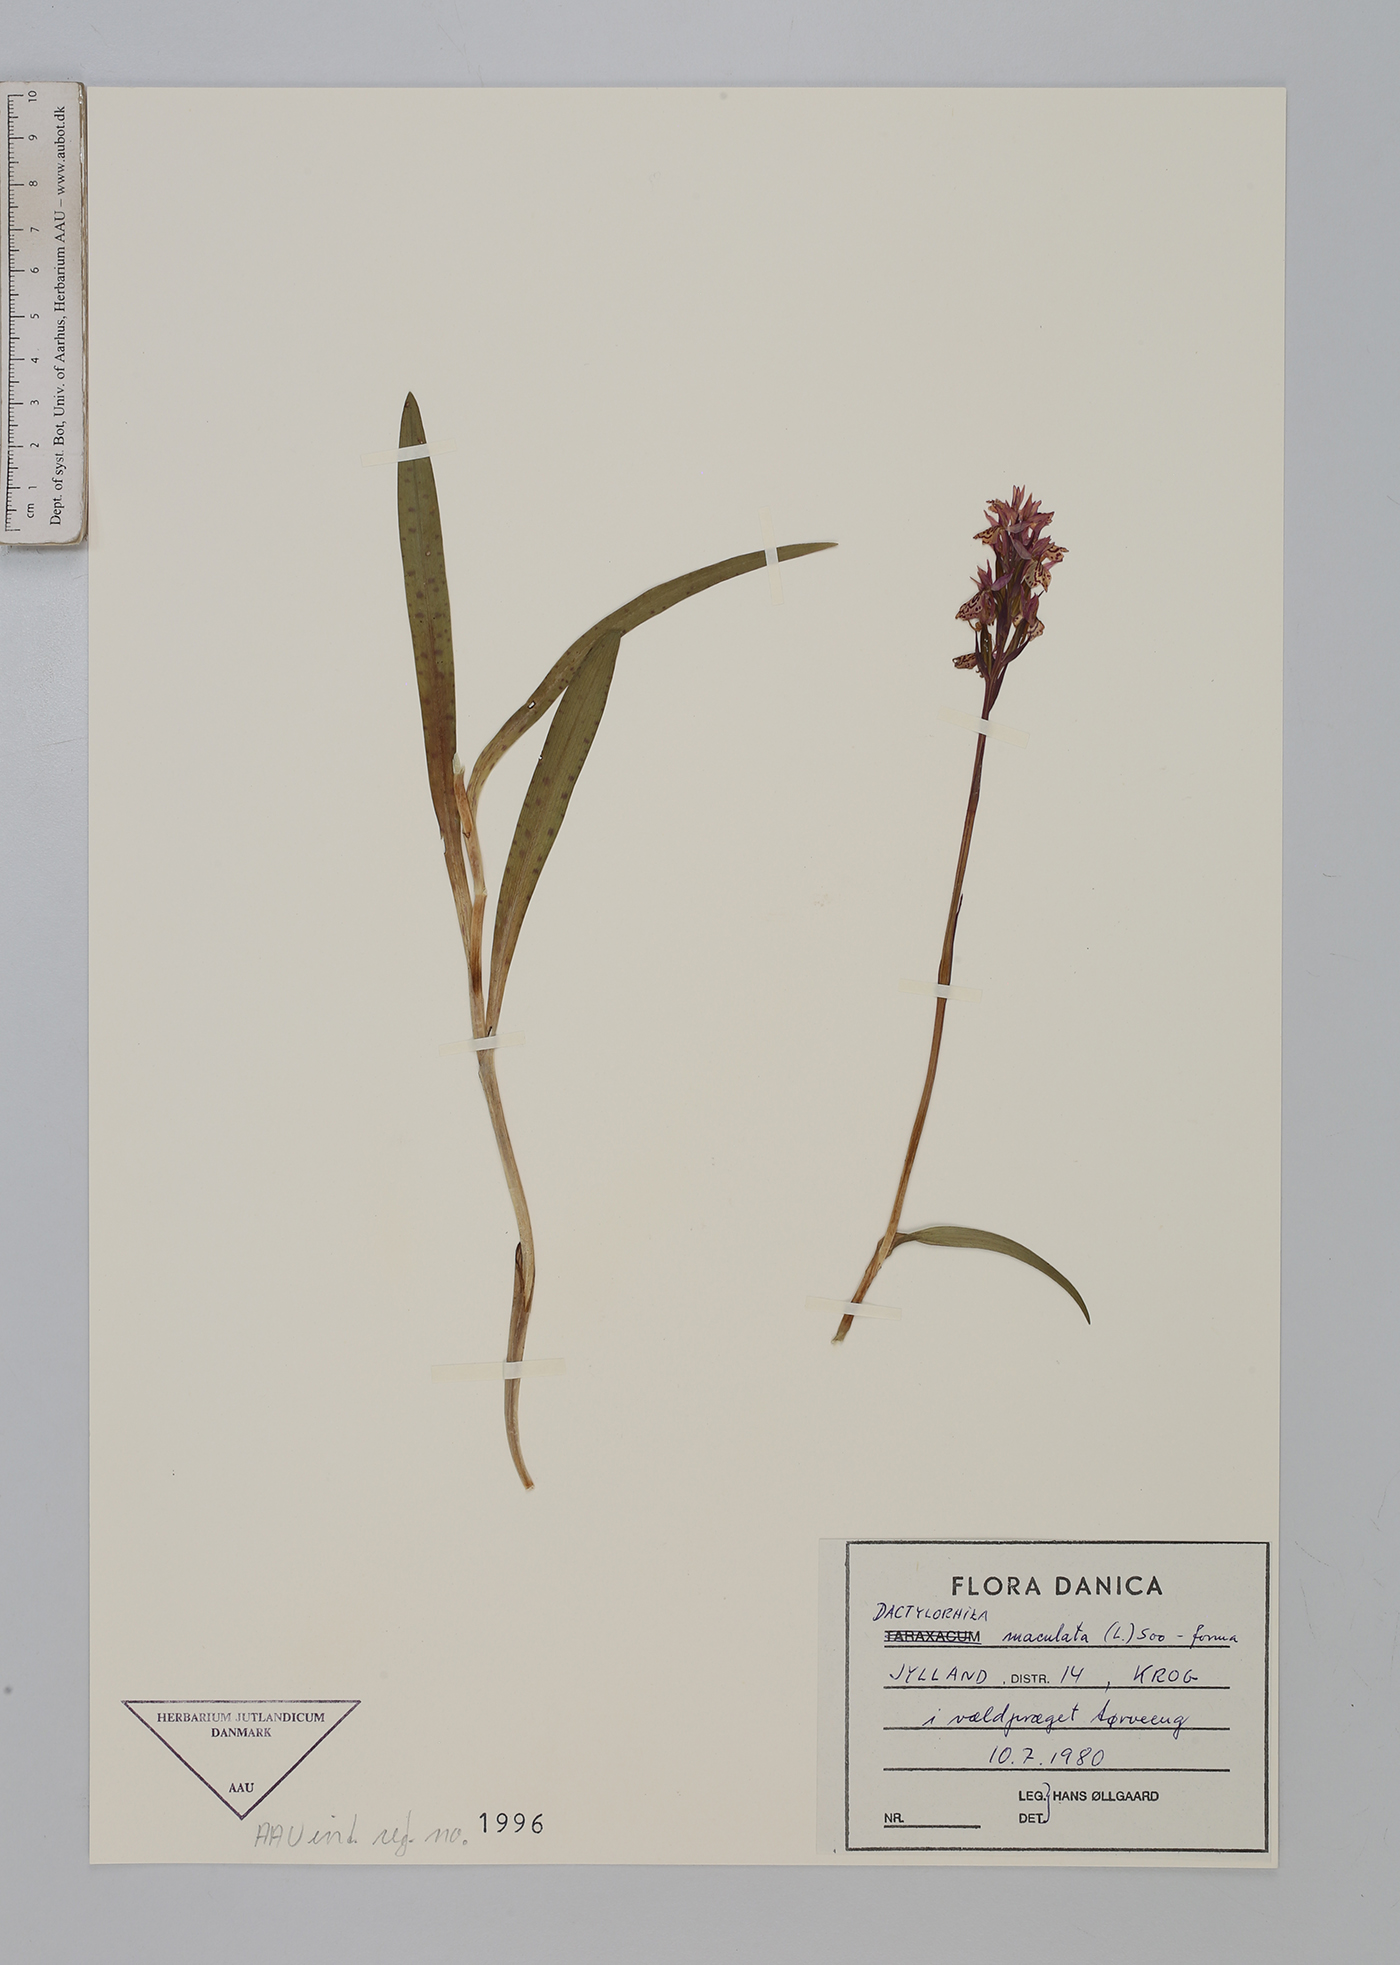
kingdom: Plantae
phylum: Tracheophyta
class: Liliopsida
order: Asparagales
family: Orchidaceae
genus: Dactylorhiza
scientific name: Dactylorhiza maculata
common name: Heath spotted-orchid
